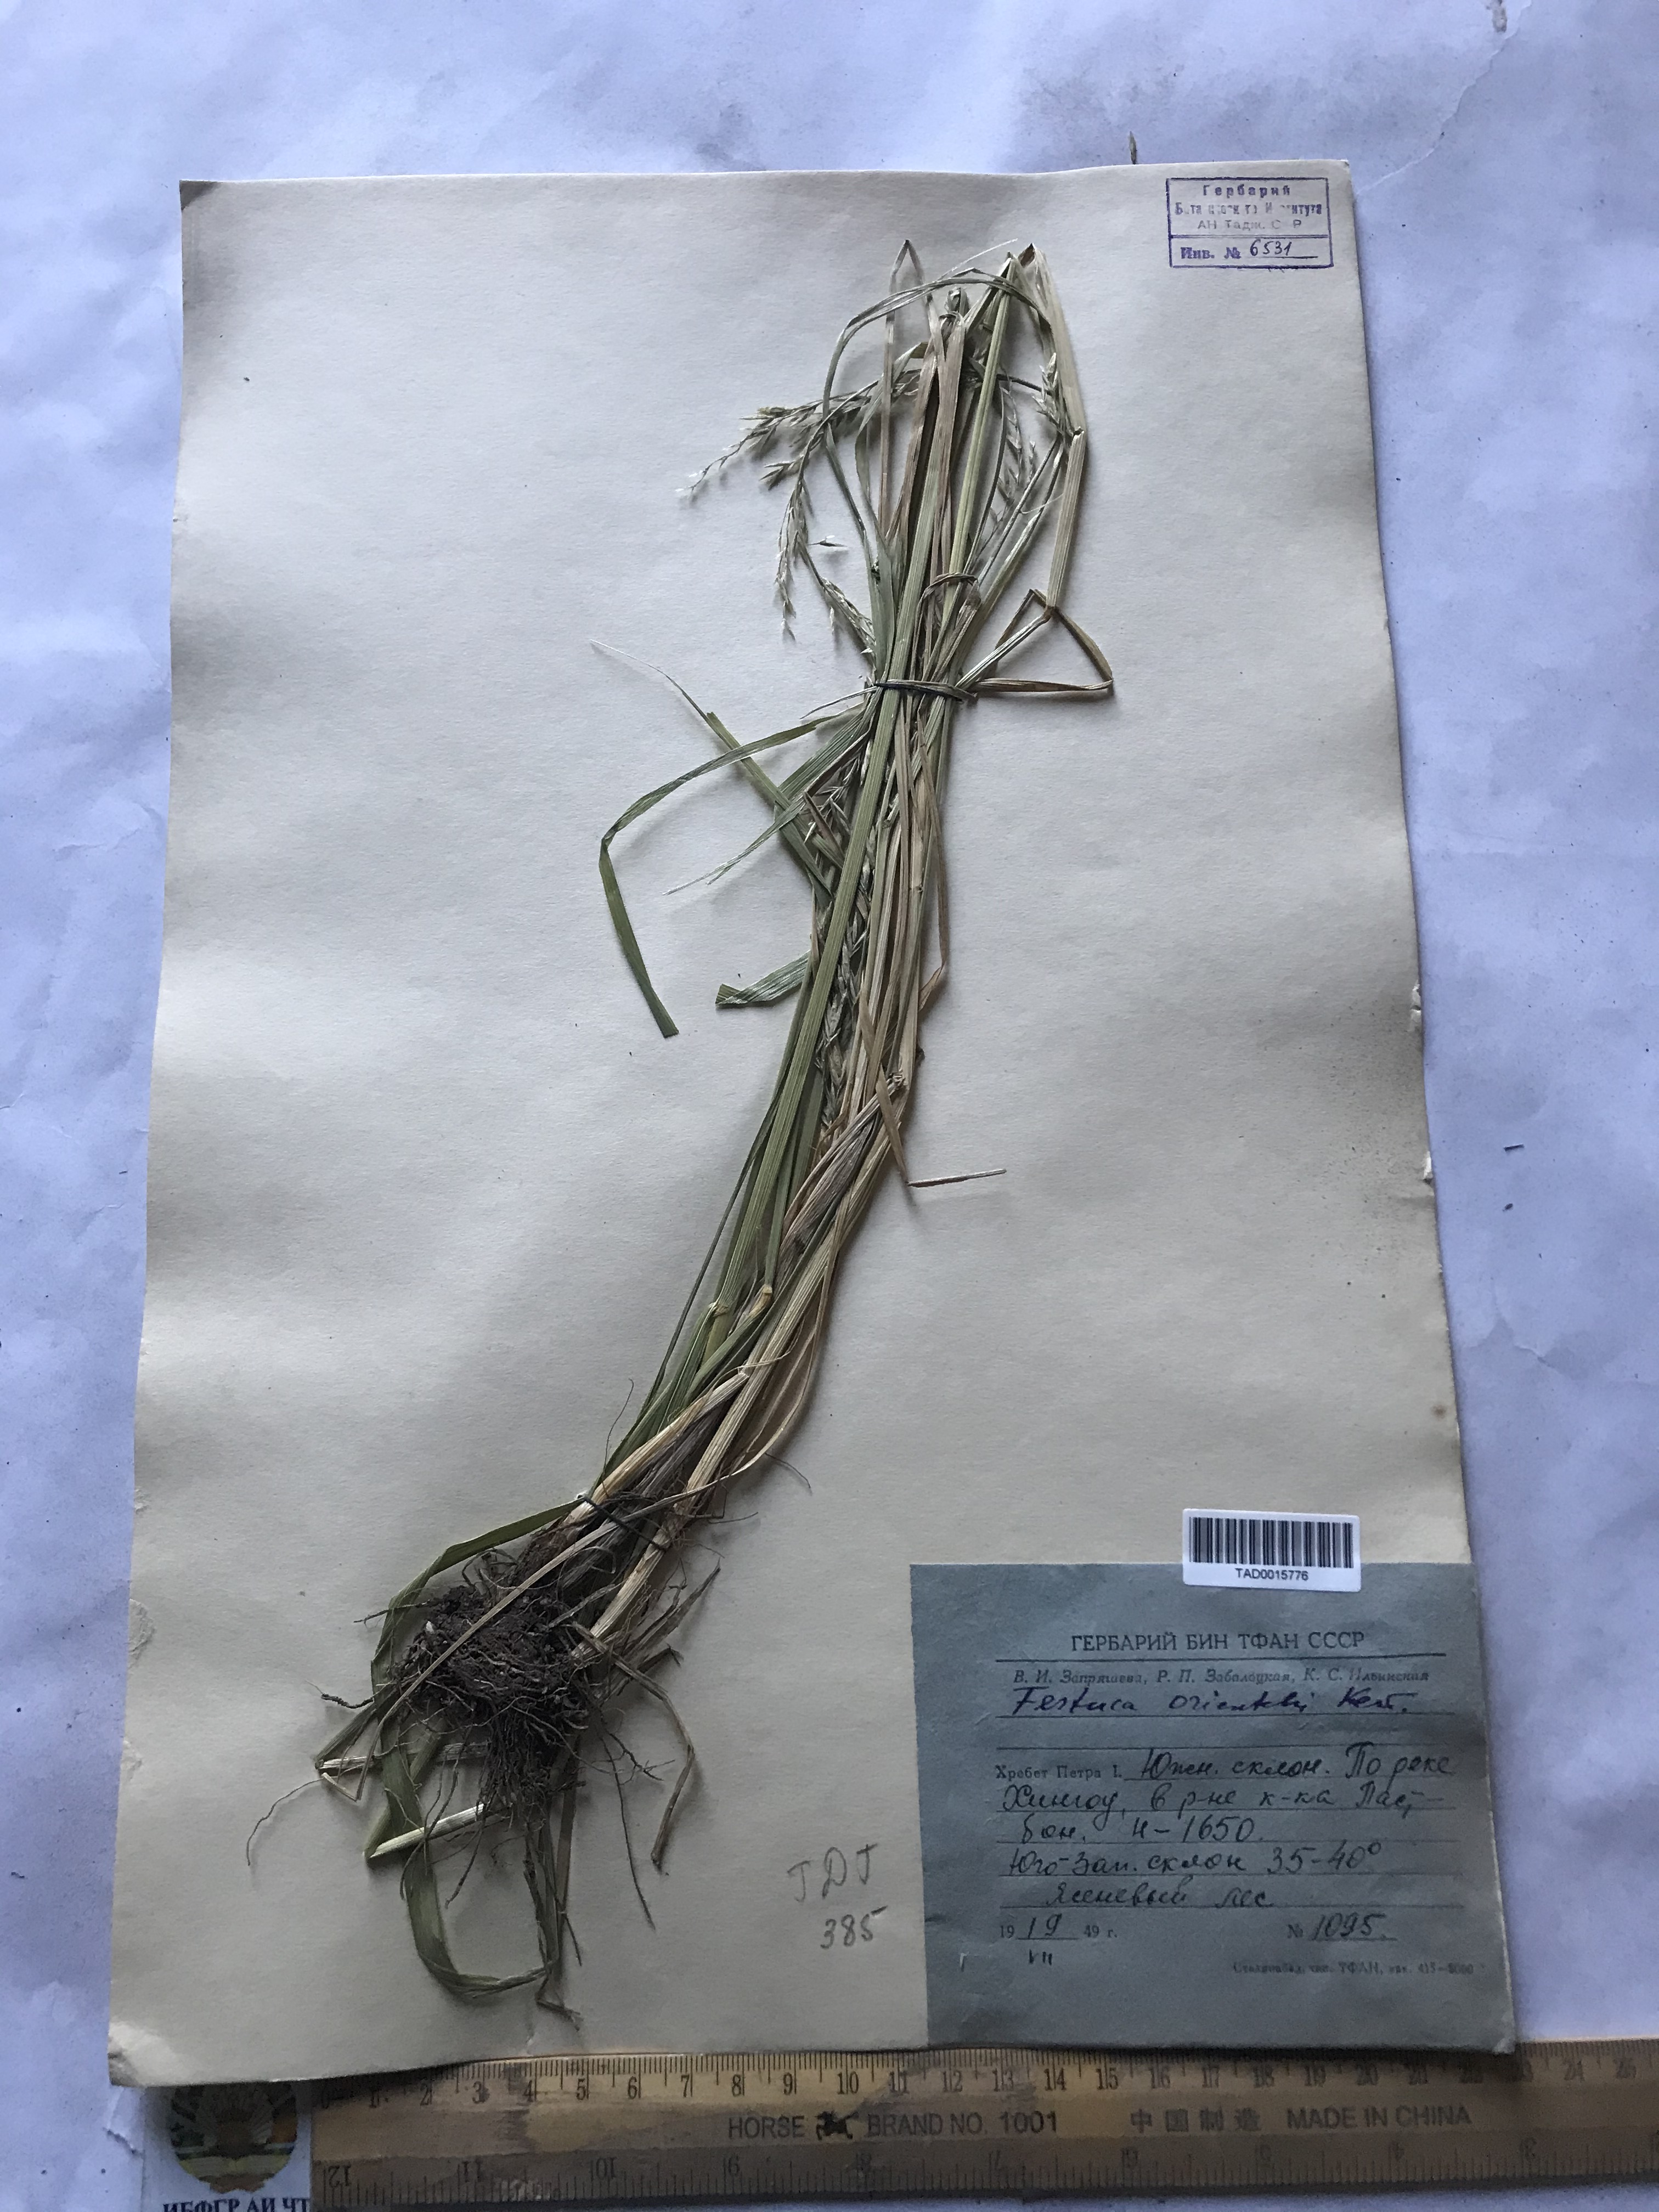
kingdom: Plantae
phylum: Tracheophyta
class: Liliopsida
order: Poales
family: Poaceae
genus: Lolium
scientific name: Lolium arundinaceum
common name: Reed fescue
